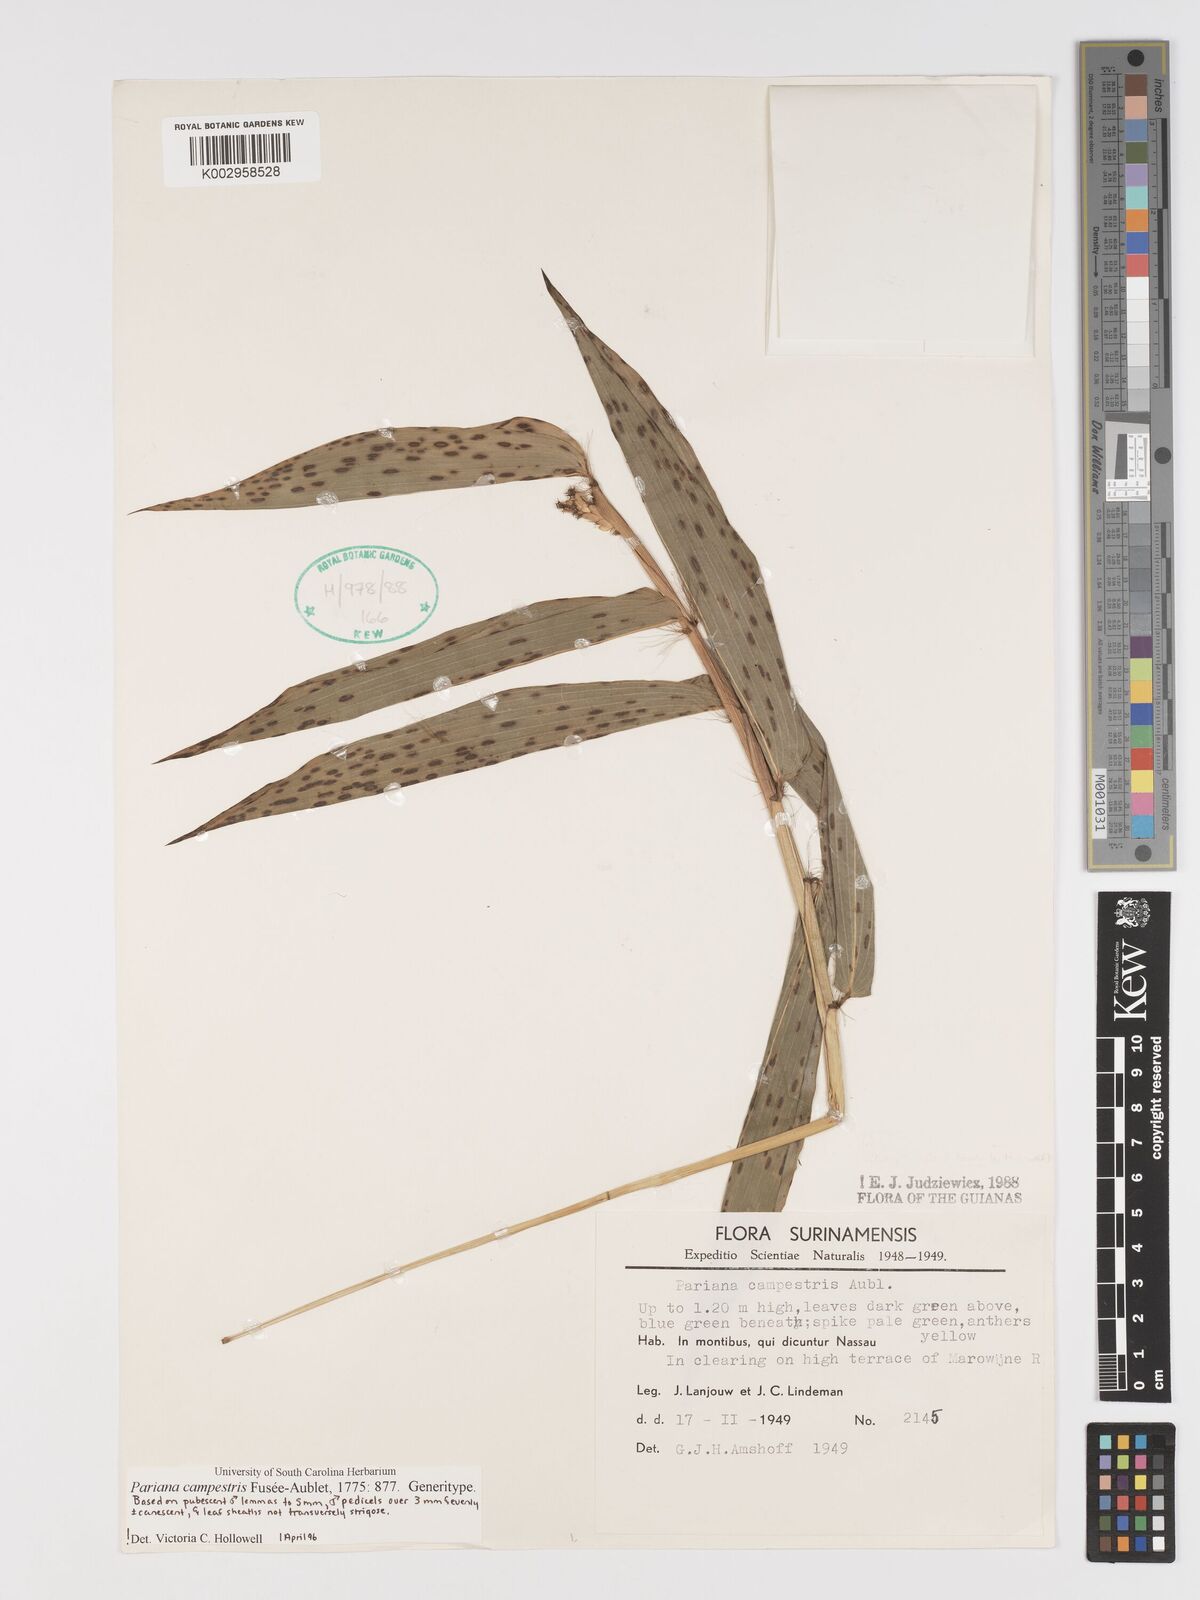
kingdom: Plantae
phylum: Tracheophyta
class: Liliopsida
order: Poales
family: Poaceae
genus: Pariana
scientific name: Pariana campestris
